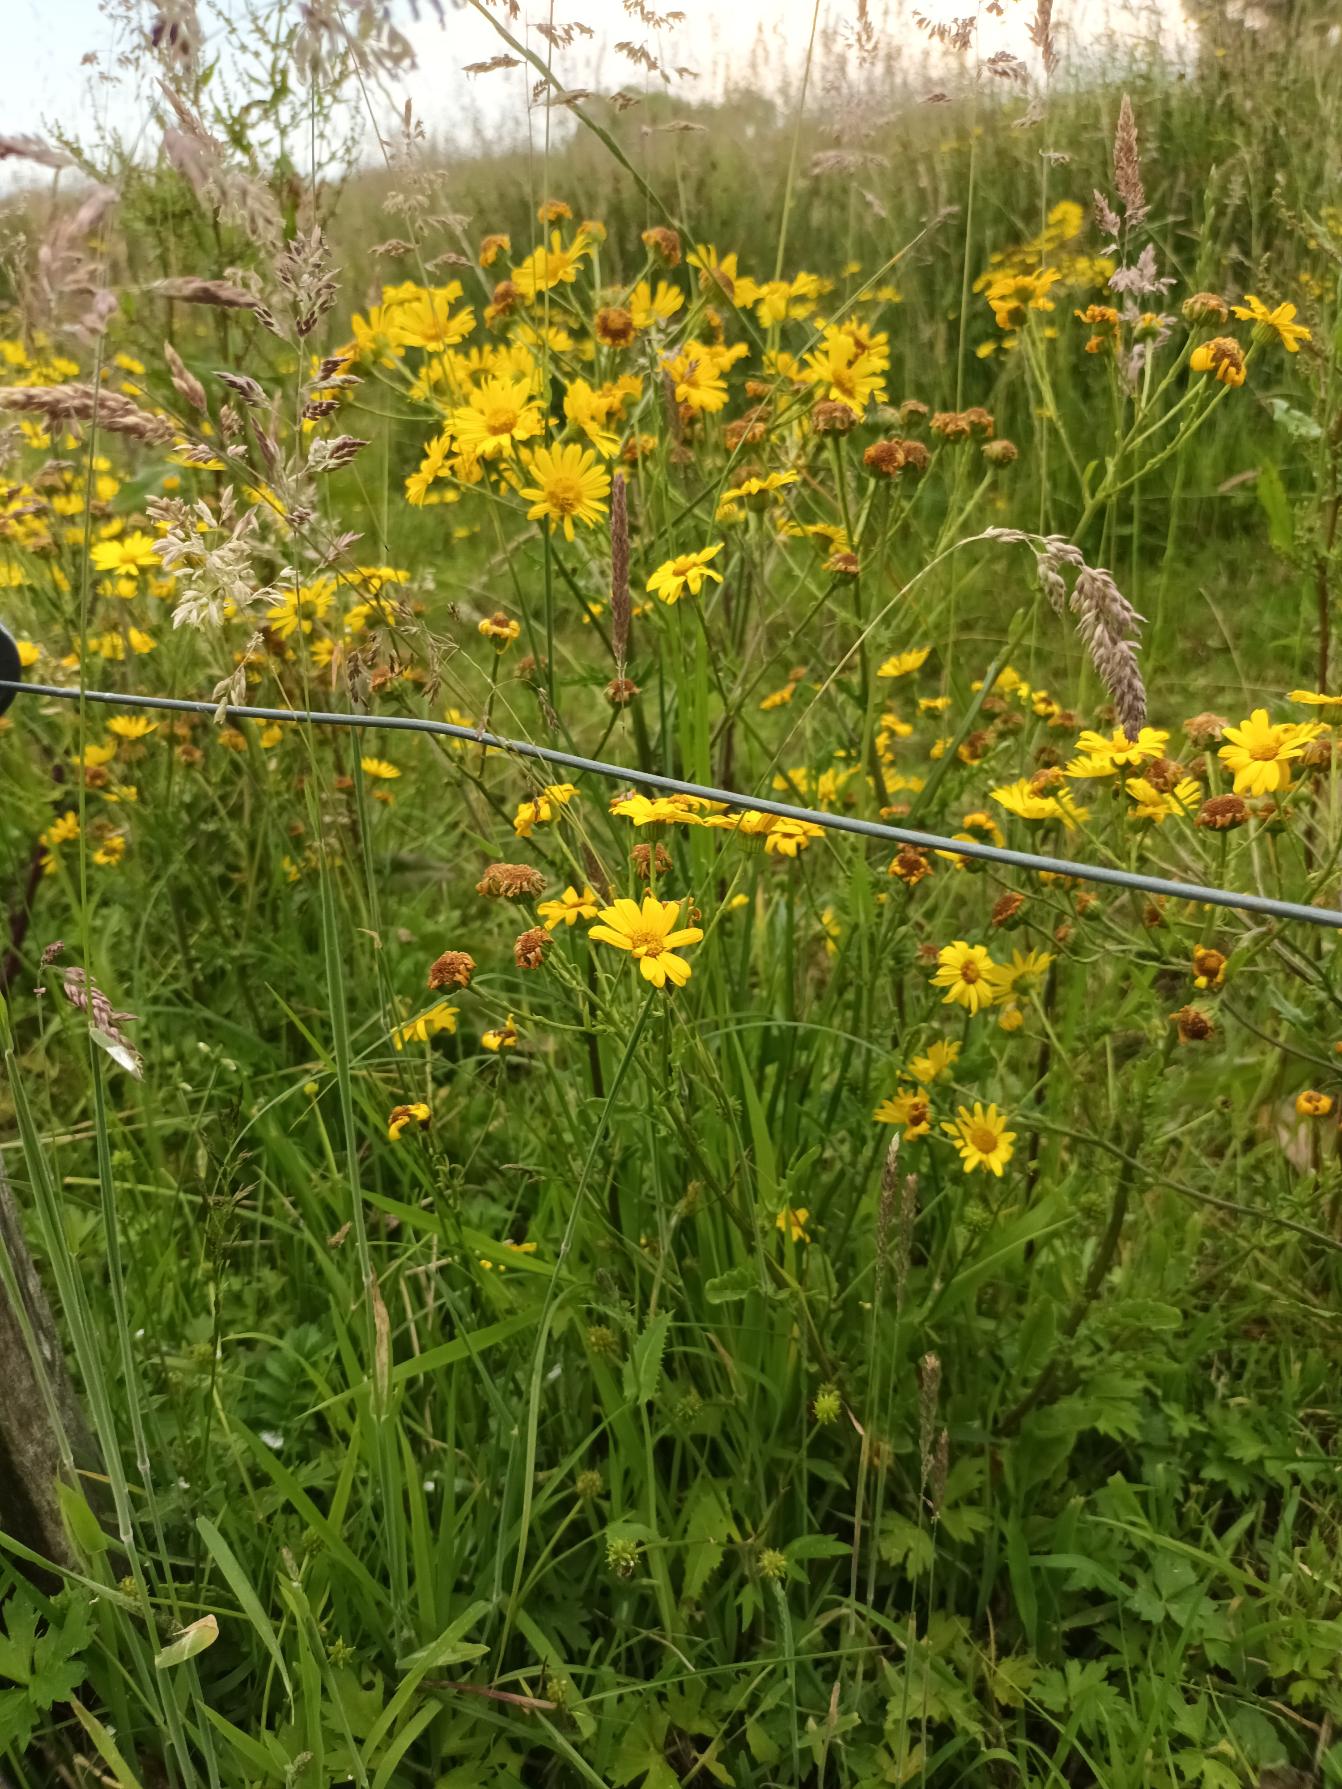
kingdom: Plantae
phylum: Tracheophyta
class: Magnoliopsida
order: Asterales
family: Asteraceae
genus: Jacobaea
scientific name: Jacobaea aquatica
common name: Vand-brandbæger
